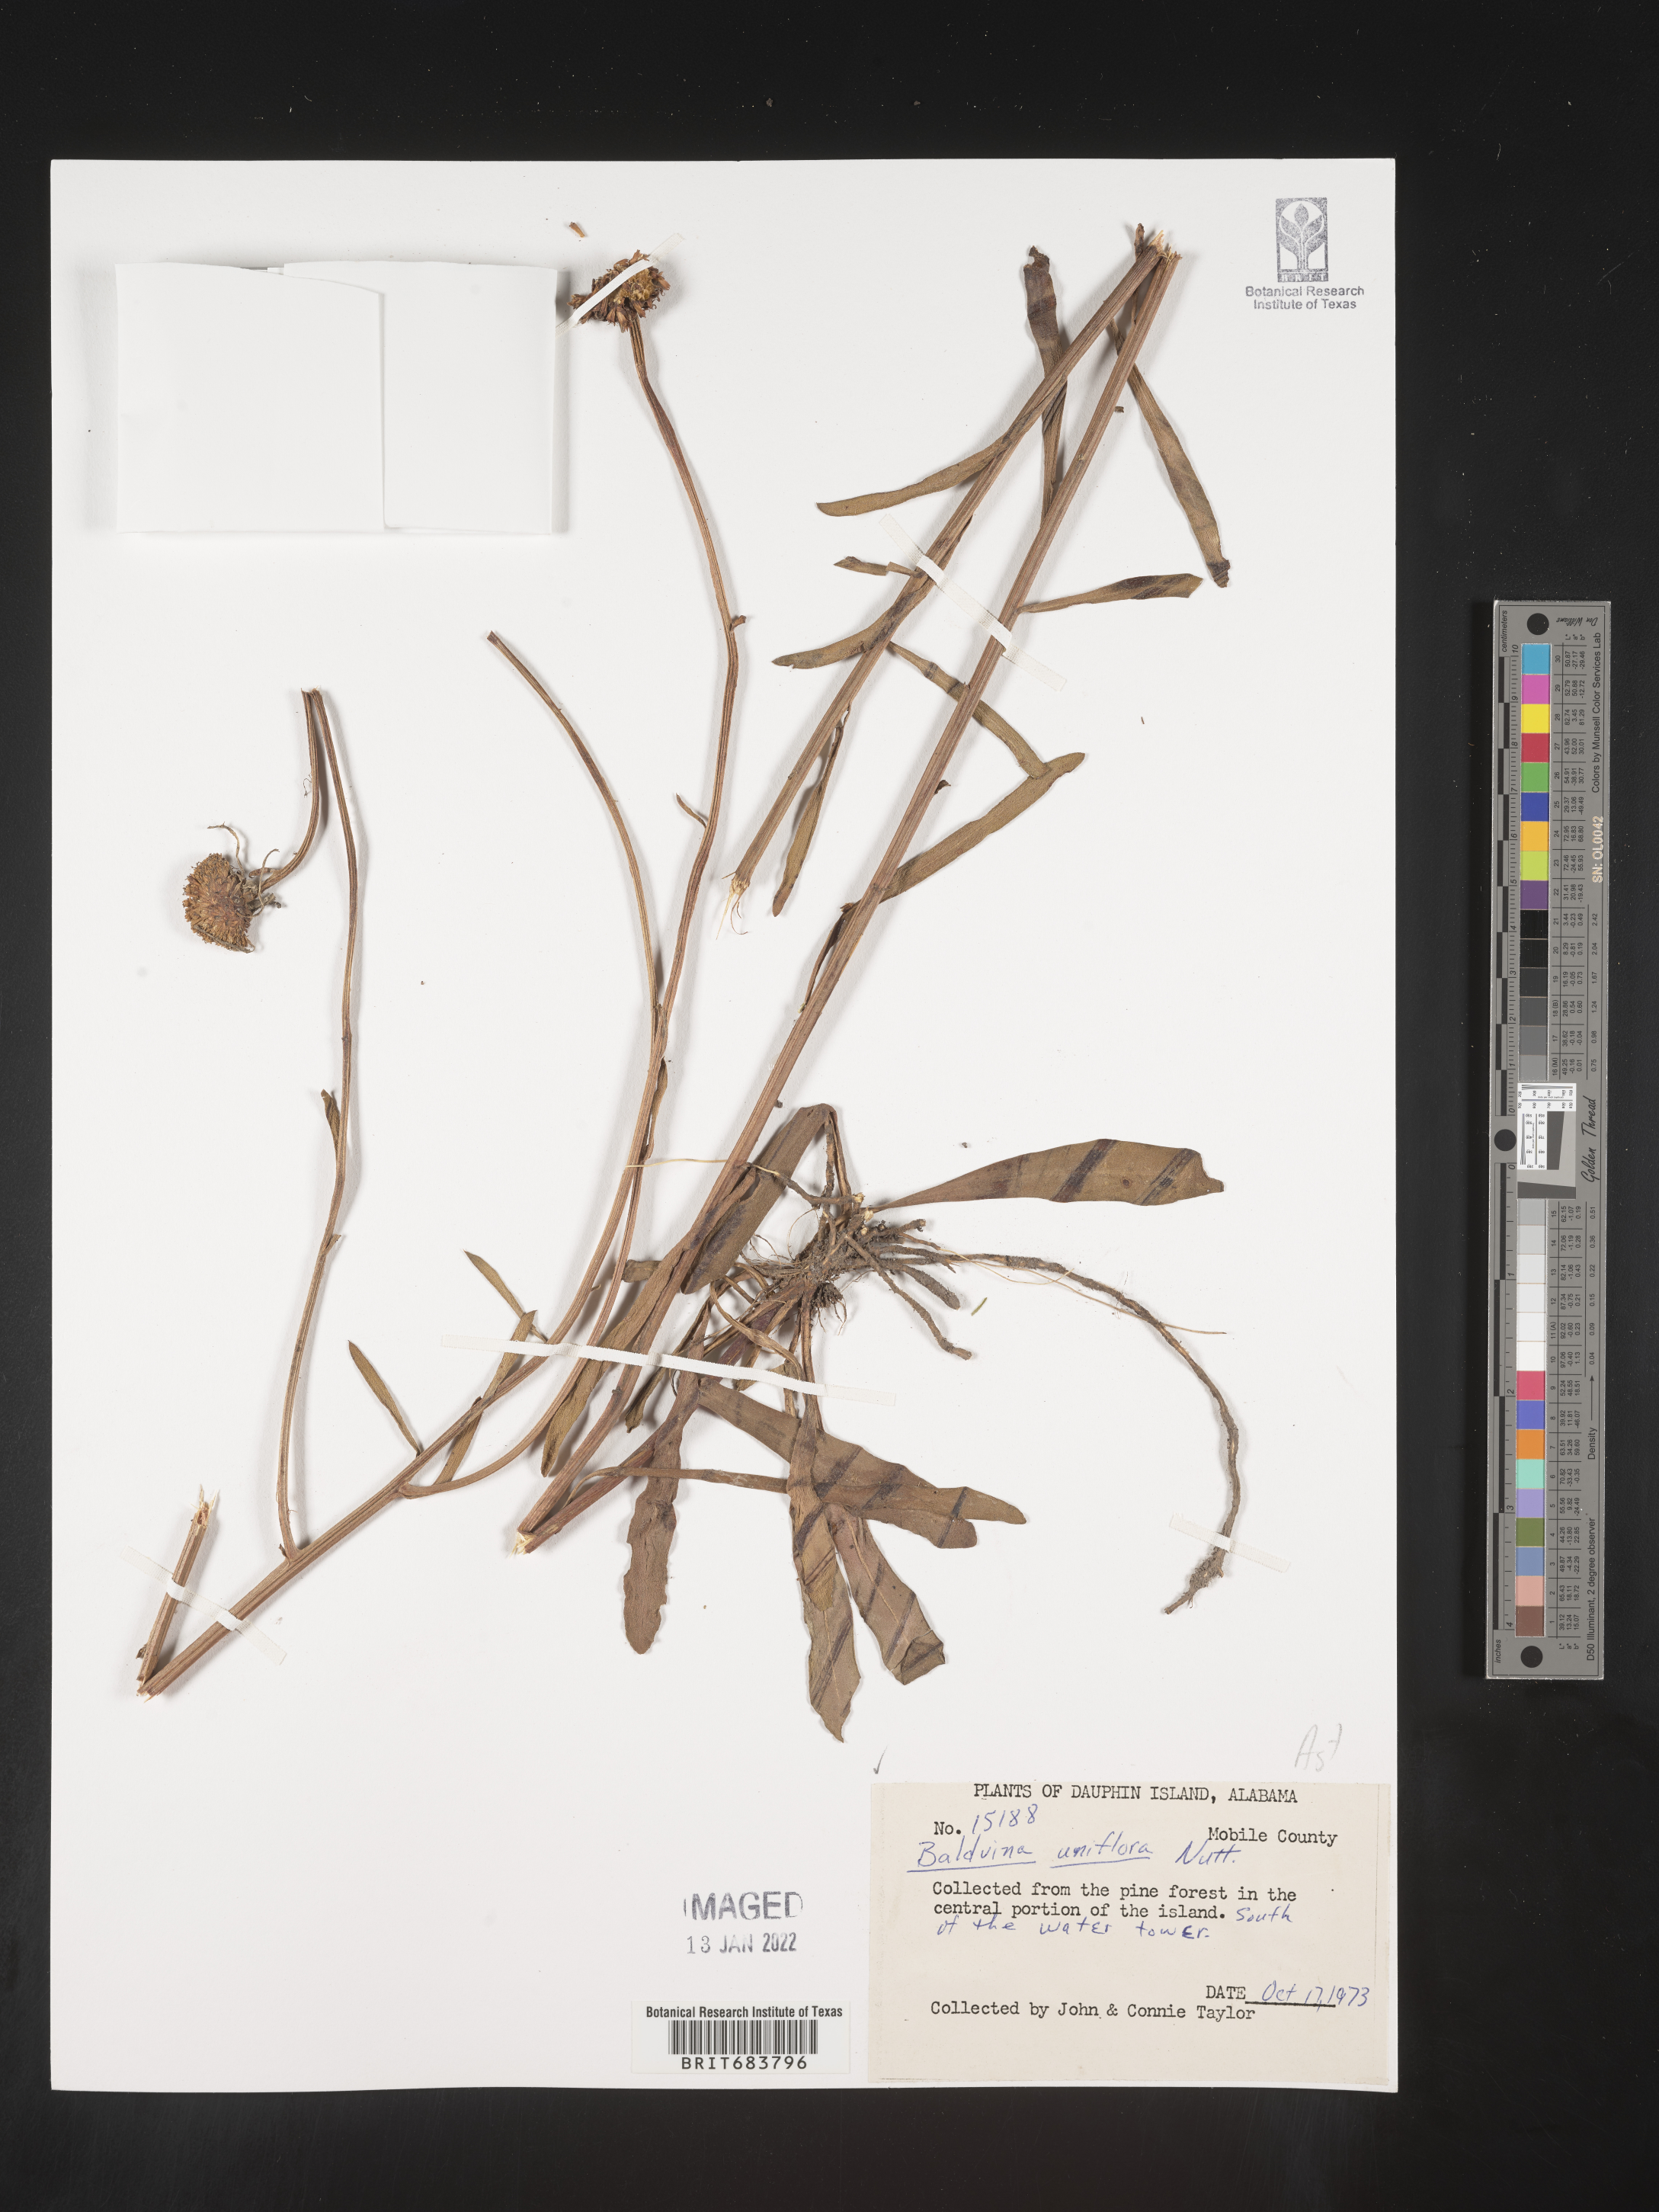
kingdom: Plantae
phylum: Tracheophyta
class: Magnoliopsida
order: Asterales
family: Asteraceae
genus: Balduina
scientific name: Balduina uniflora
